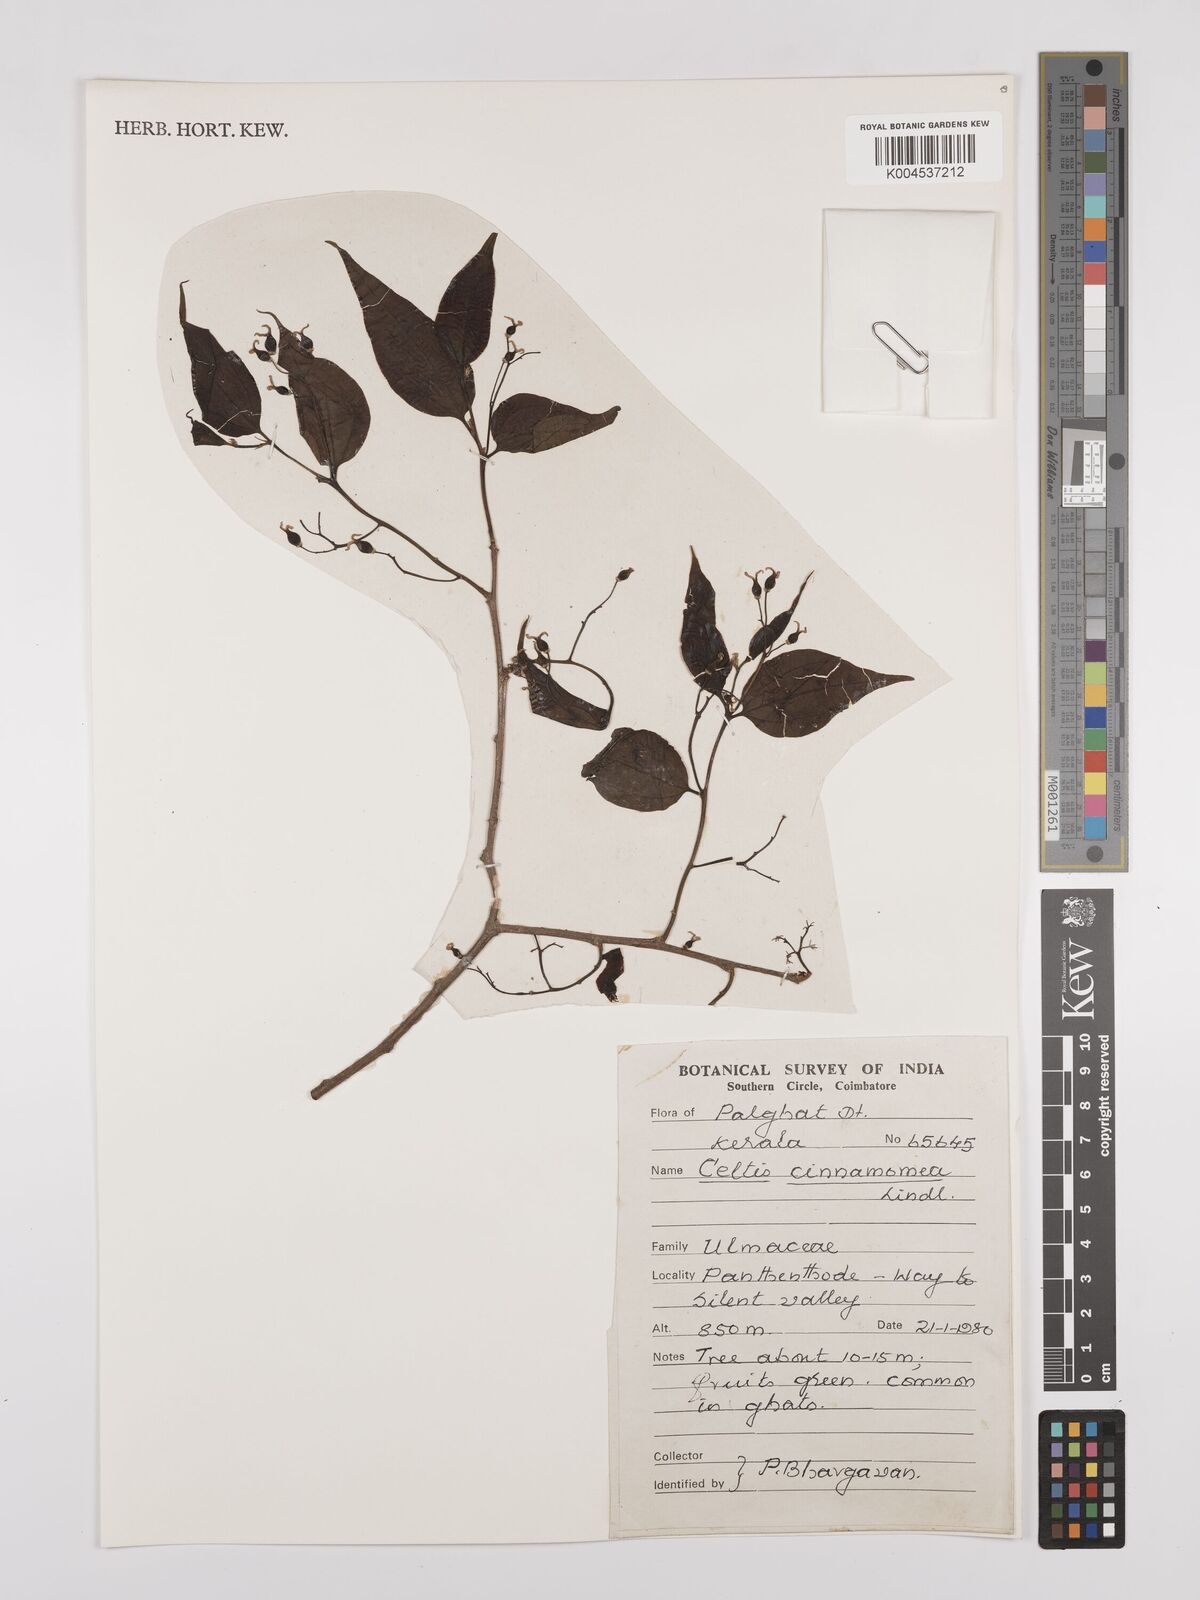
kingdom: Plantae
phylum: Tracheophyta
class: Magnoliopsida
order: Rosales
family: Cannabaceae
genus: Celtis
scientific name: Celtis timorensis
